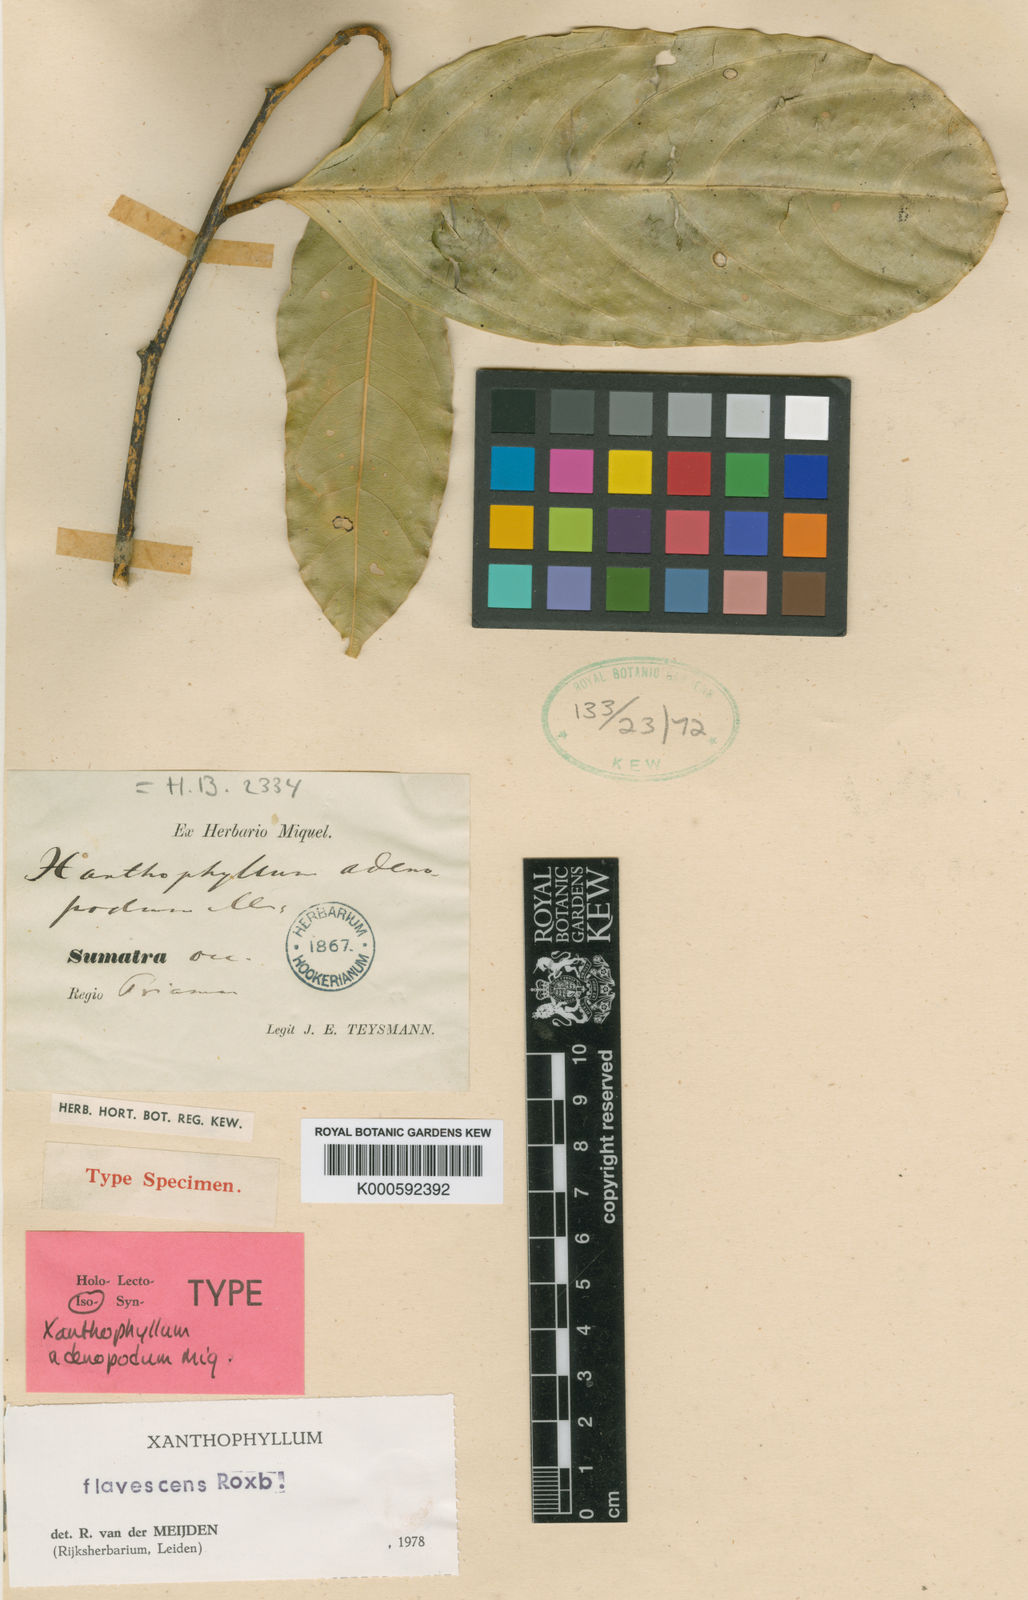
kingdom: Plantae
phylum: Tracheophyta
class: Magnoliopsida
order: Fabales
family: Polygalaceae
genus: Xanthophyllum
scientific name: Xanthophyllum flavescens
